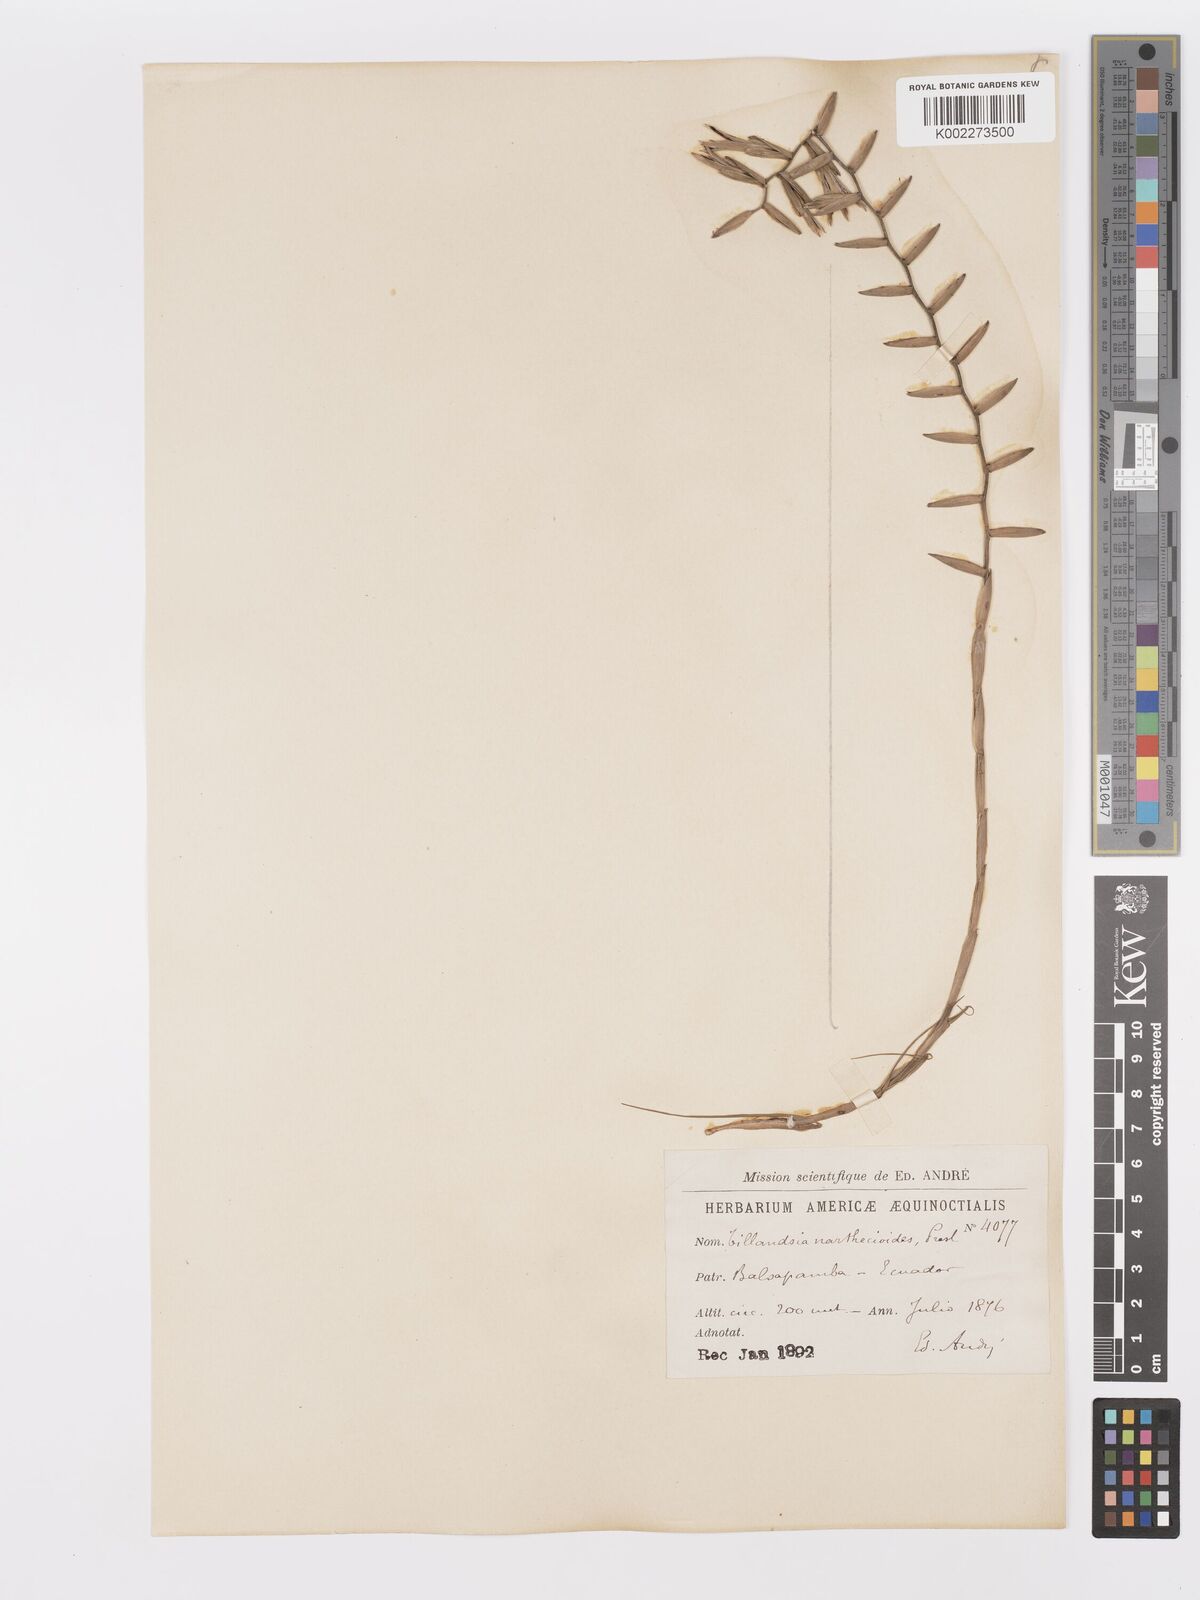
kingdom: Plantae
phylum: Tracheophyta
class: Liliopsida
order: Poales
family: Bromeliaceae
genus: Lemeltonia
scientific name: Lemeltonia narthecioides
